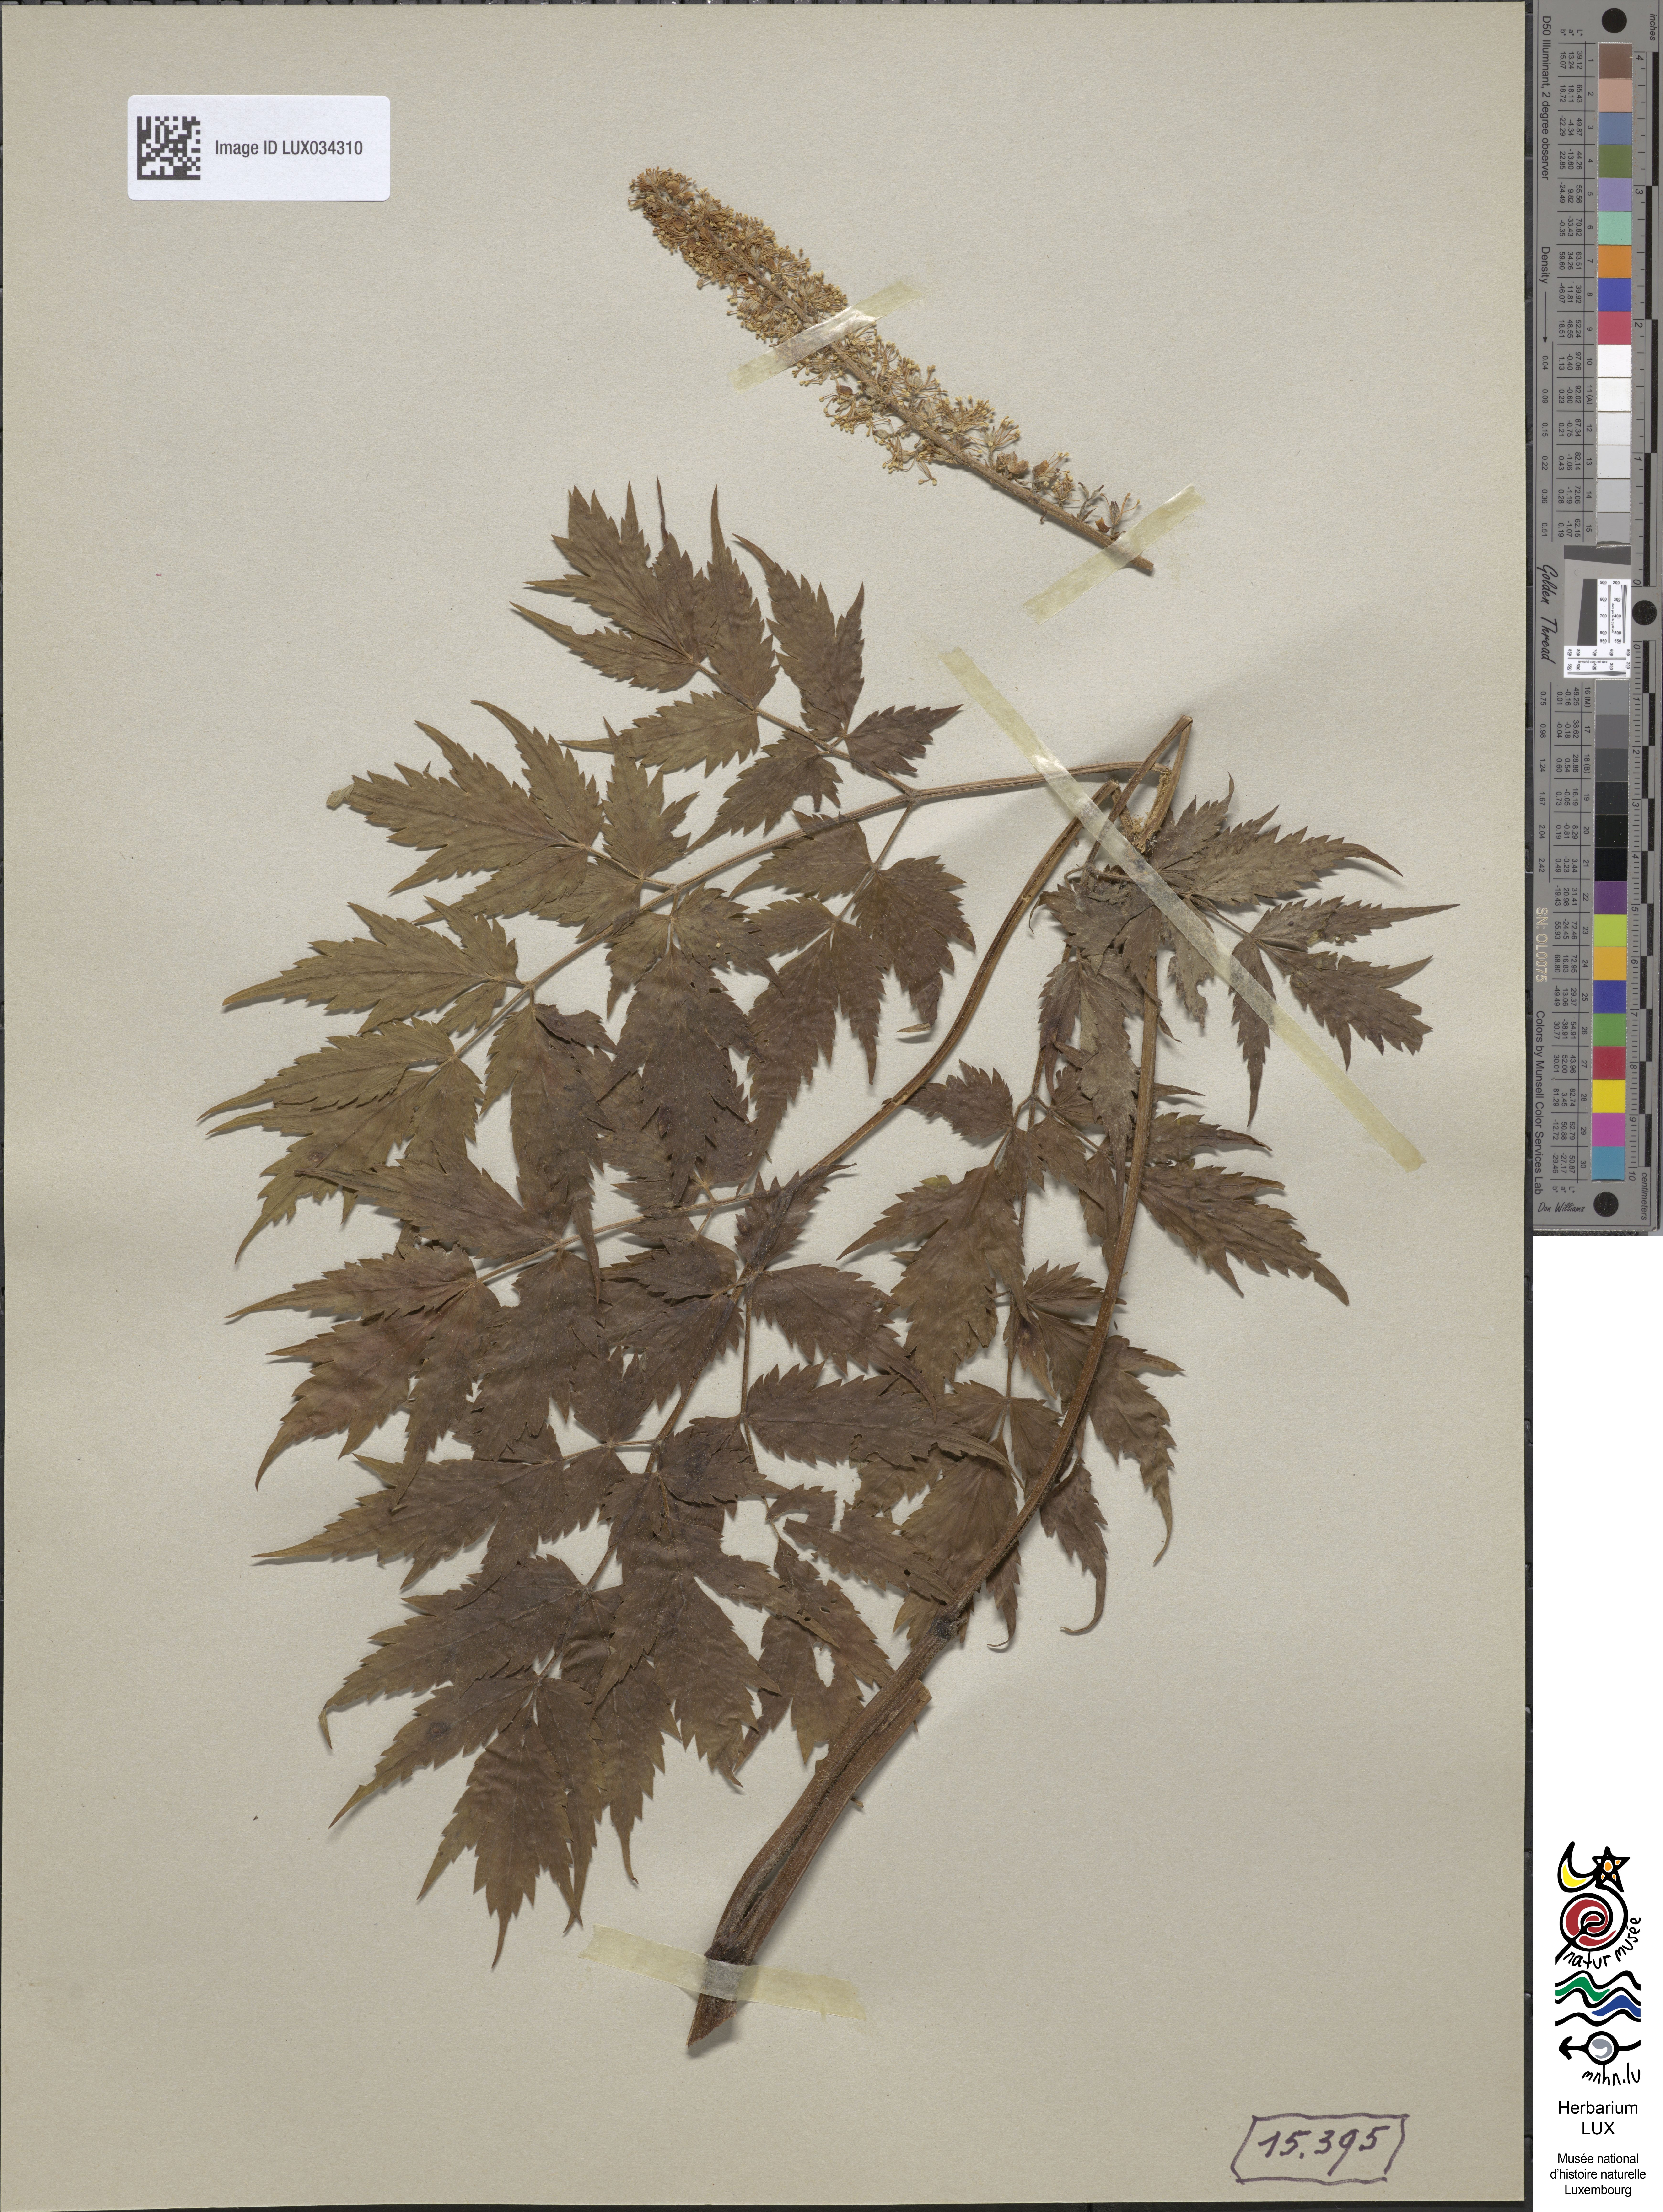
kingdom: Plantae
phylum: Tracheophyta
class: Magnoliopsida
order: Ranunculales
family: Ranunculaceae
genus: Actaea
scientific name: Actaea cimicifuga
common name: Chinese cimicifuga
